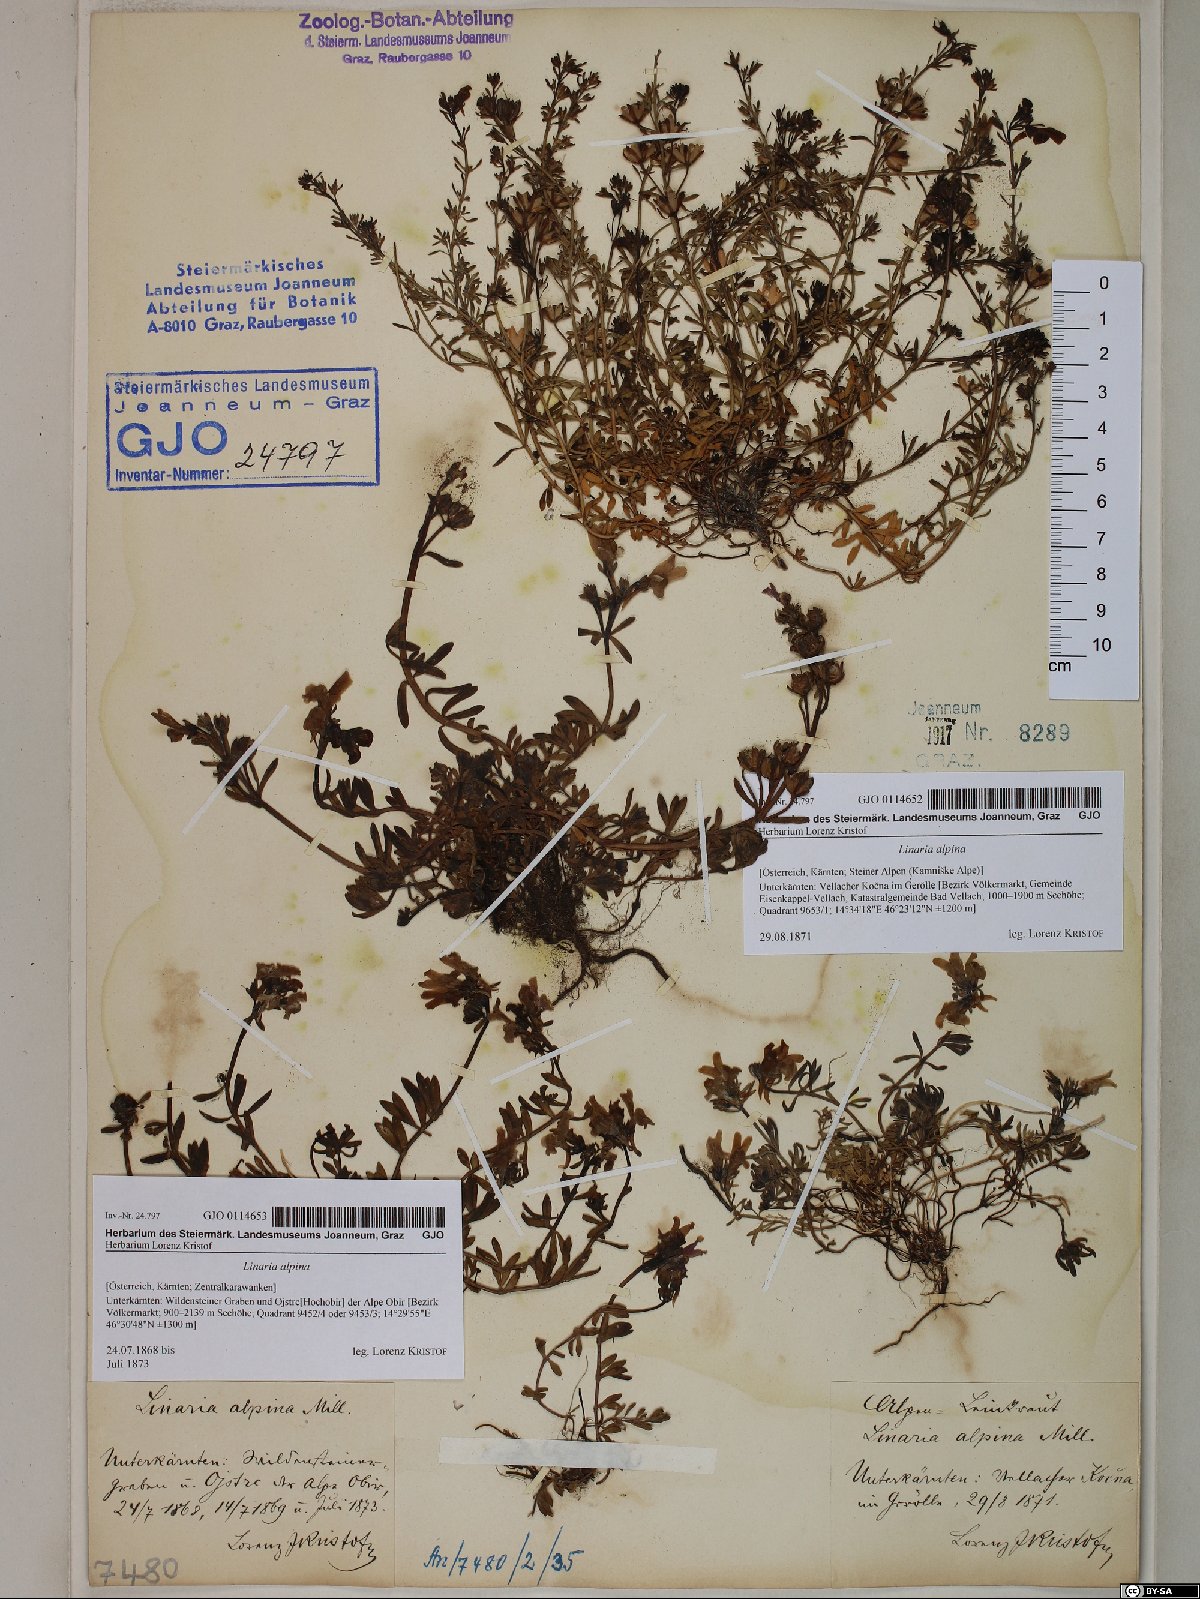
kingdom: Plantae
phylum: Tracheophyta
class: Magnoliopsida
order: Lamiales
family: Plantaginaceae
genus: Linaria
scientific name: Linaria alpina
